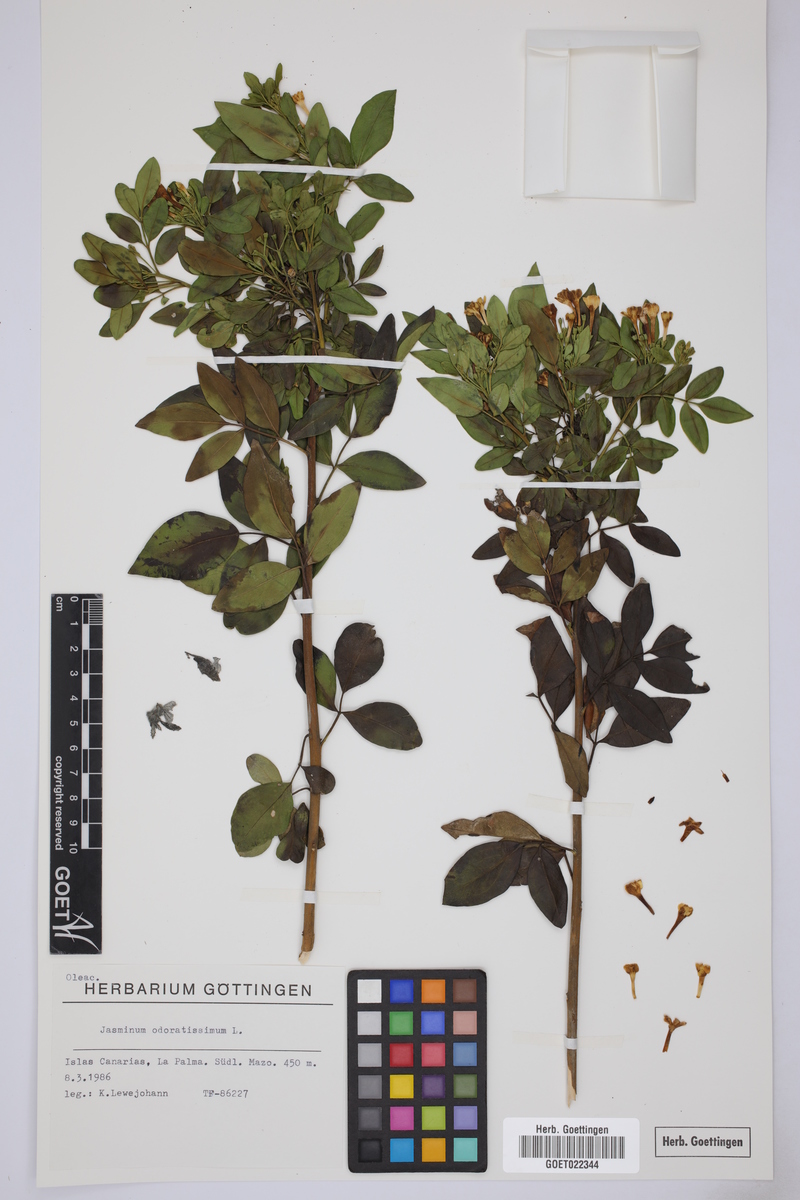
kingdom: Plantae
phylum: Tracheophyta
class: Magnoliopsida
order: Lamiales
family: Oleaceae
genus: Chrysojasminum
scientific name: Chrysojasminum odoratissimum
